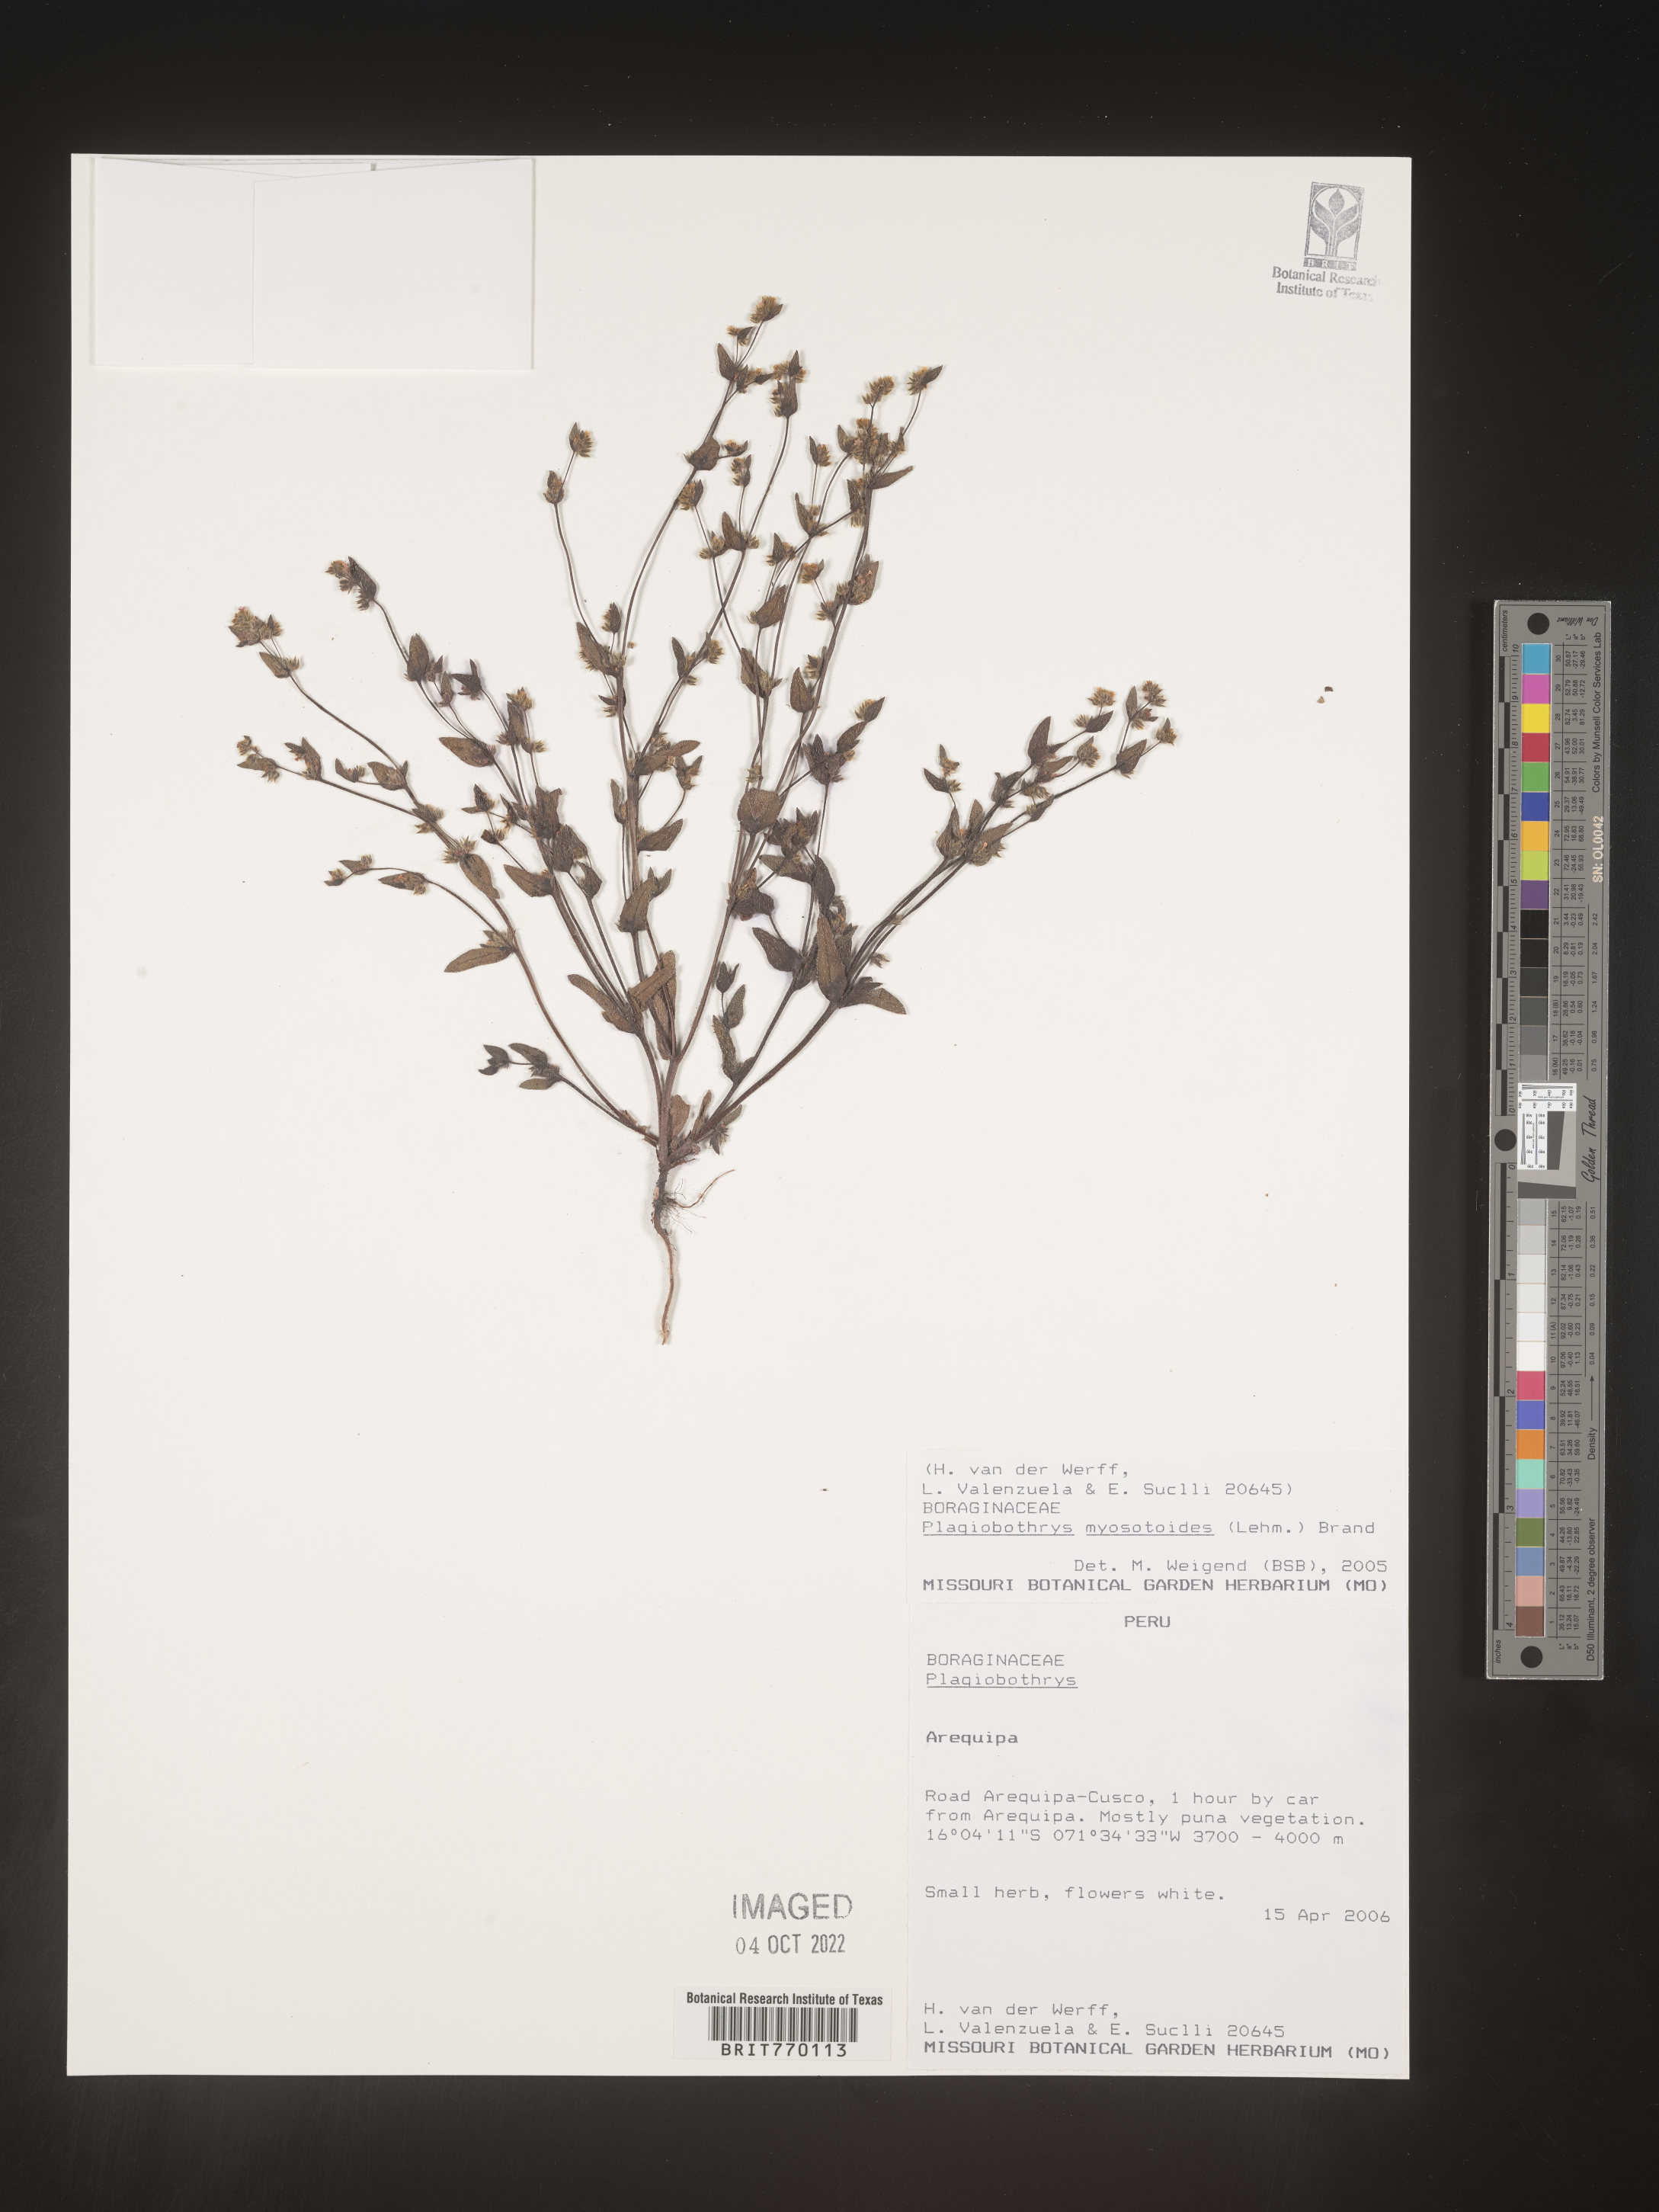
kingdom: Plantae
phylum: Tracheophyta
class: Magnoliopsida
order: Boraginales
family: Boraginaceae
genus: Plagiobothrys
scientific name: Plagiobothrys
